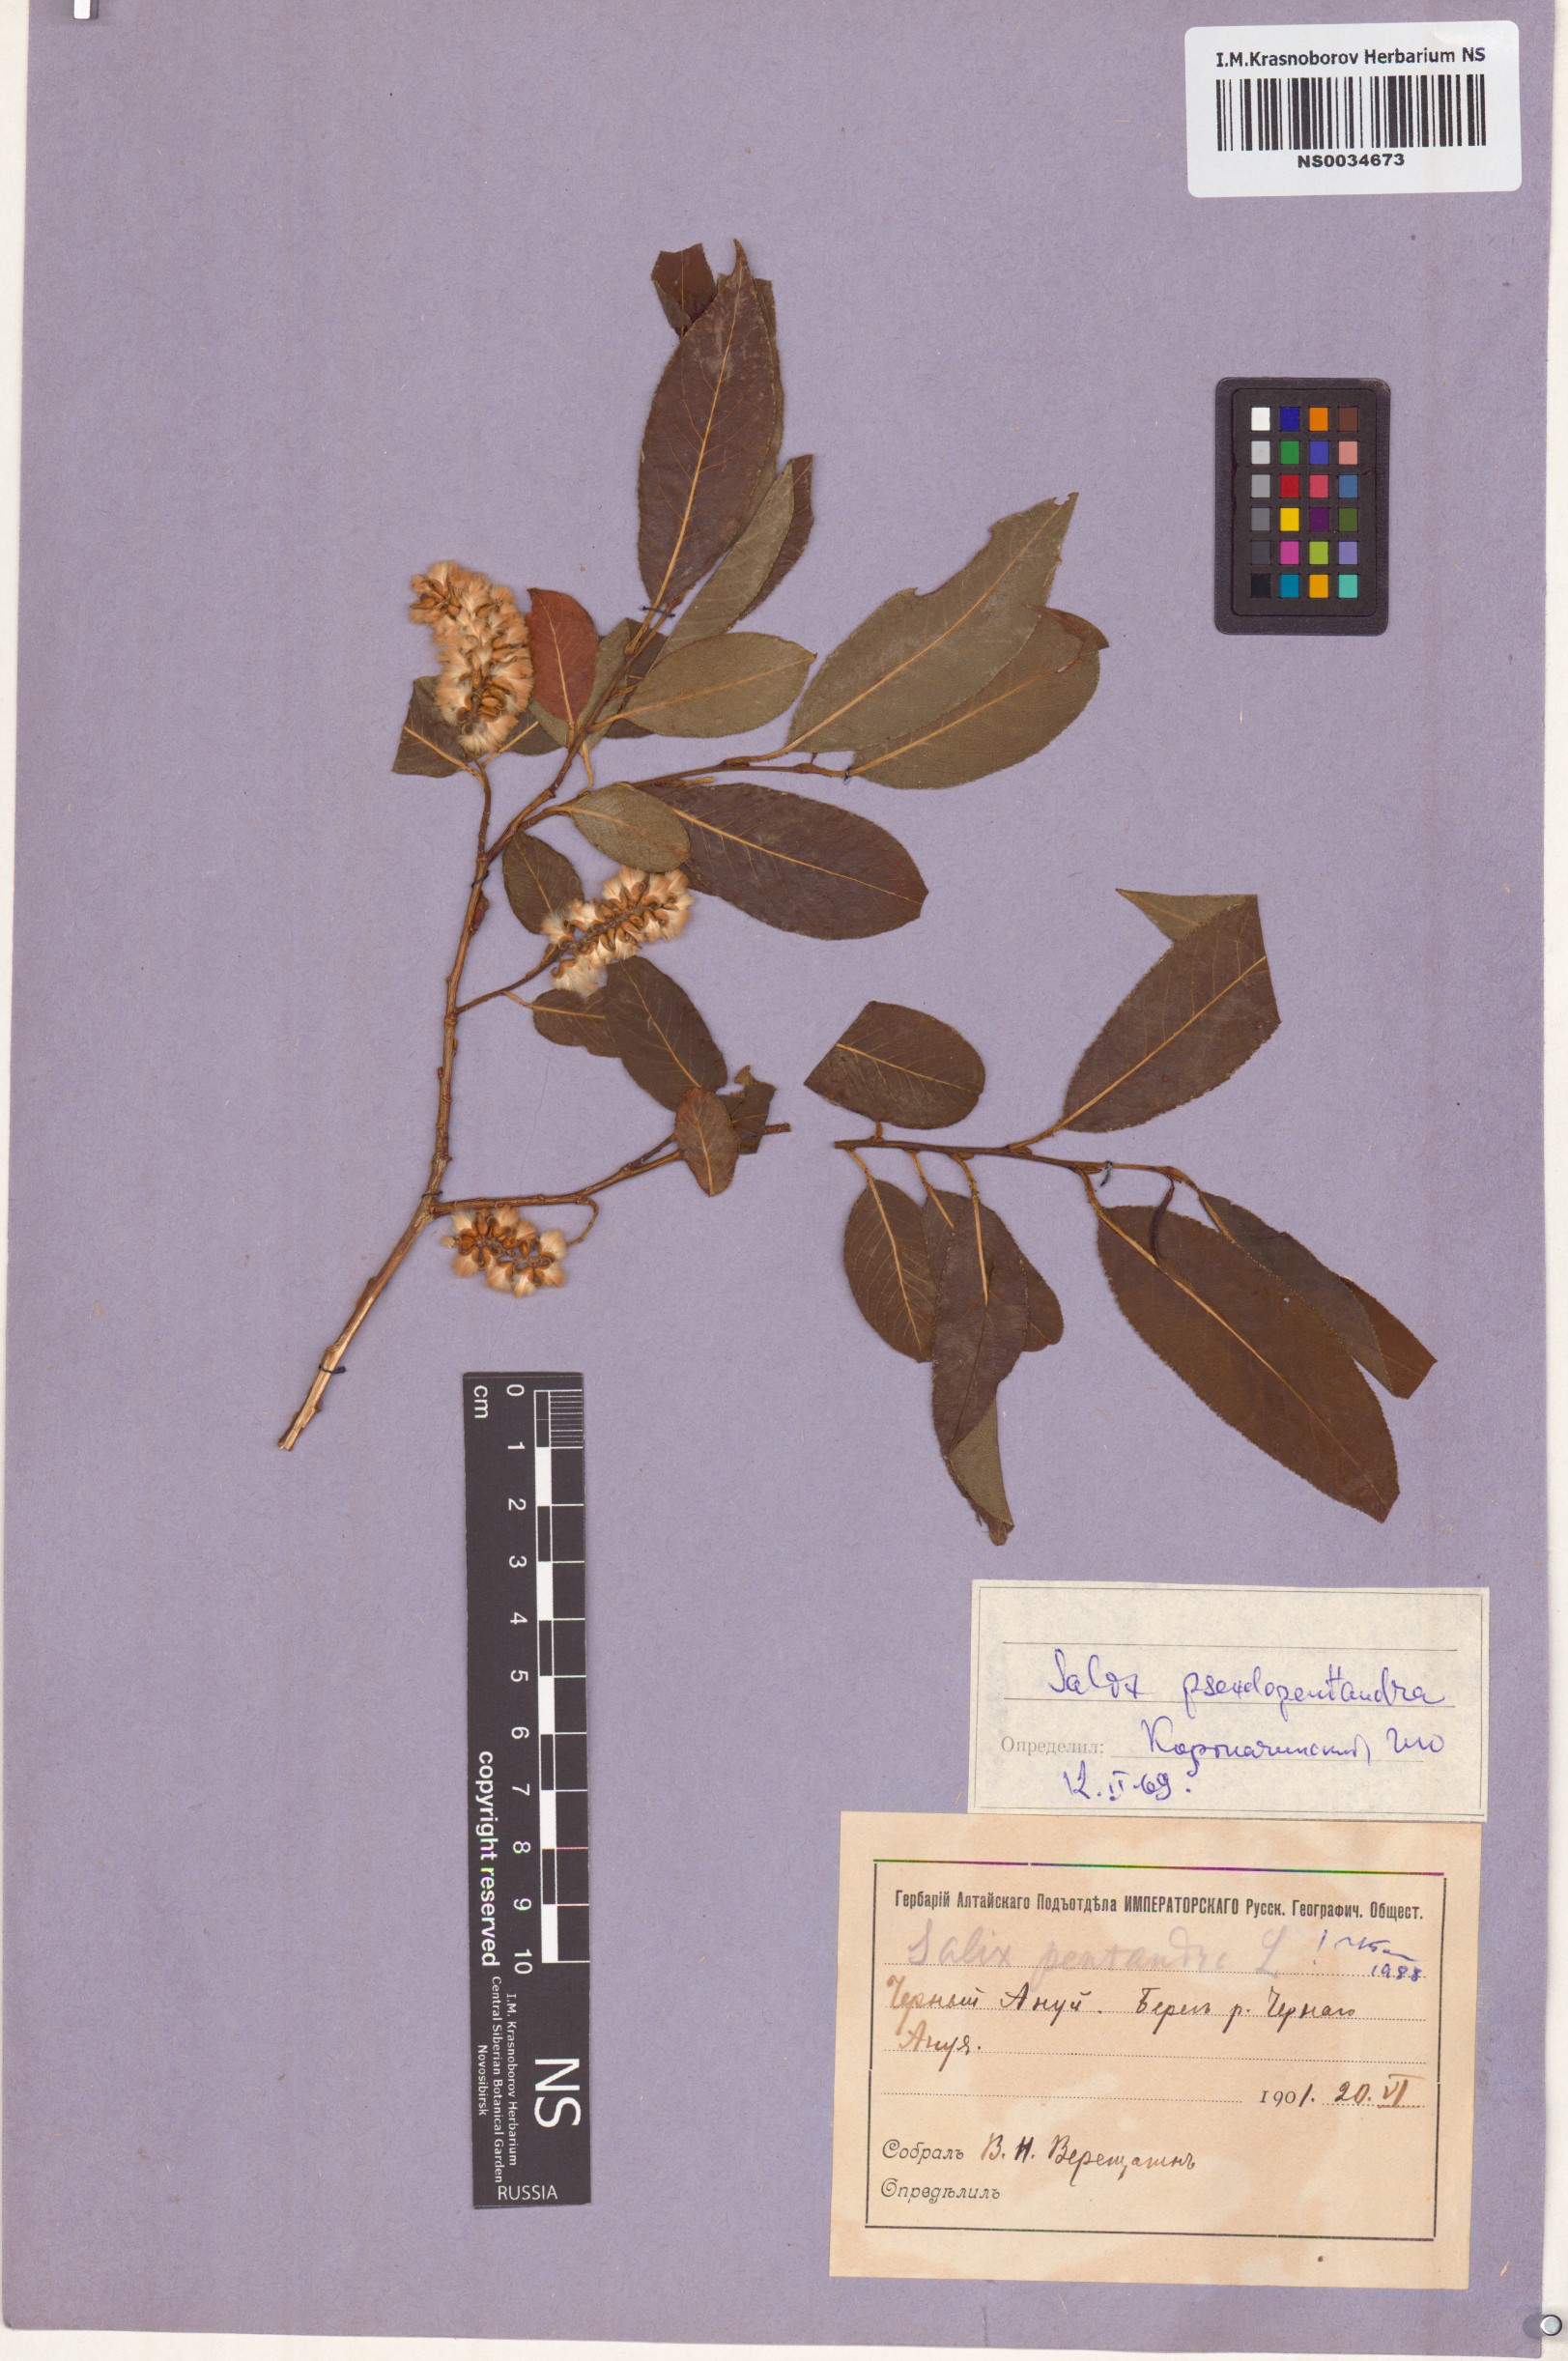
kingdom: Plantae
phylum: Tracheophyta
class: Magnoliopsida
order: Malpighiales
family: Salicaceae
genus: Salix
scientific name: Salix pentandra
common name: Bay willow
